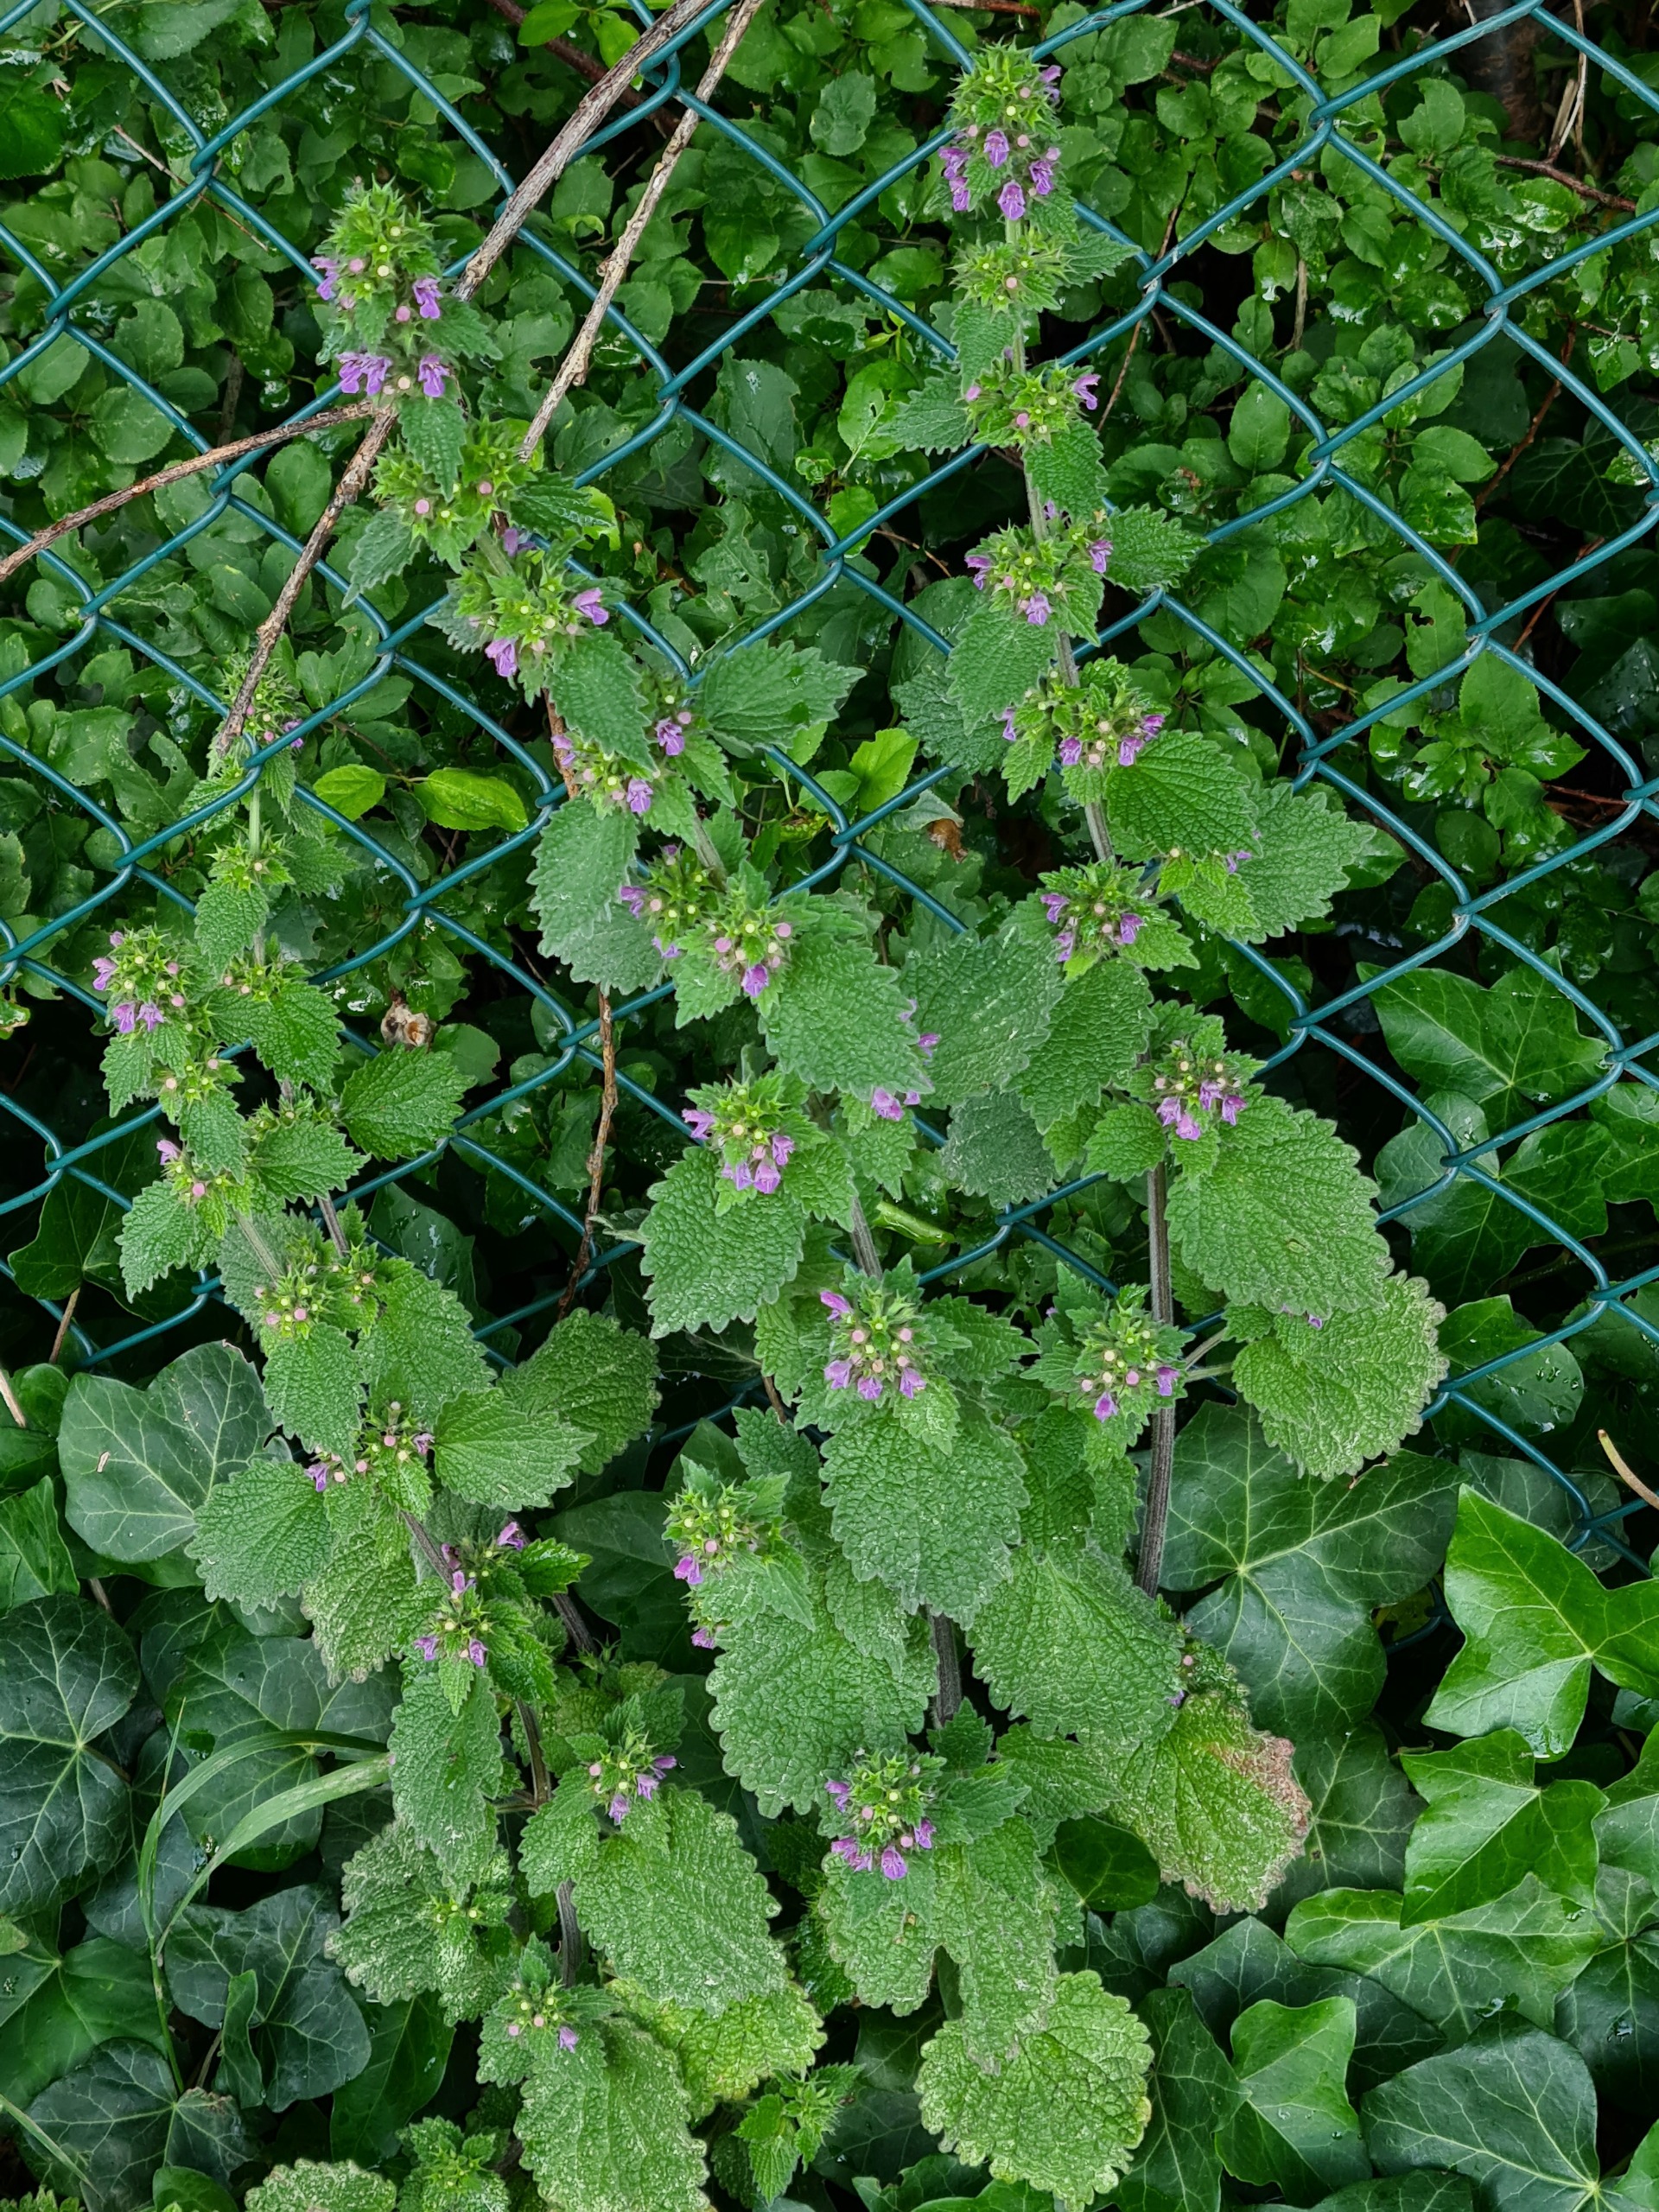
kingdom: Plantae
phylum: Tracheophyta
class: Magnoliopsida
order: Lamiales
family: Lamiaceae
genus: Ballota
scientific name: Ballota nigra
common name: Tandbæger
